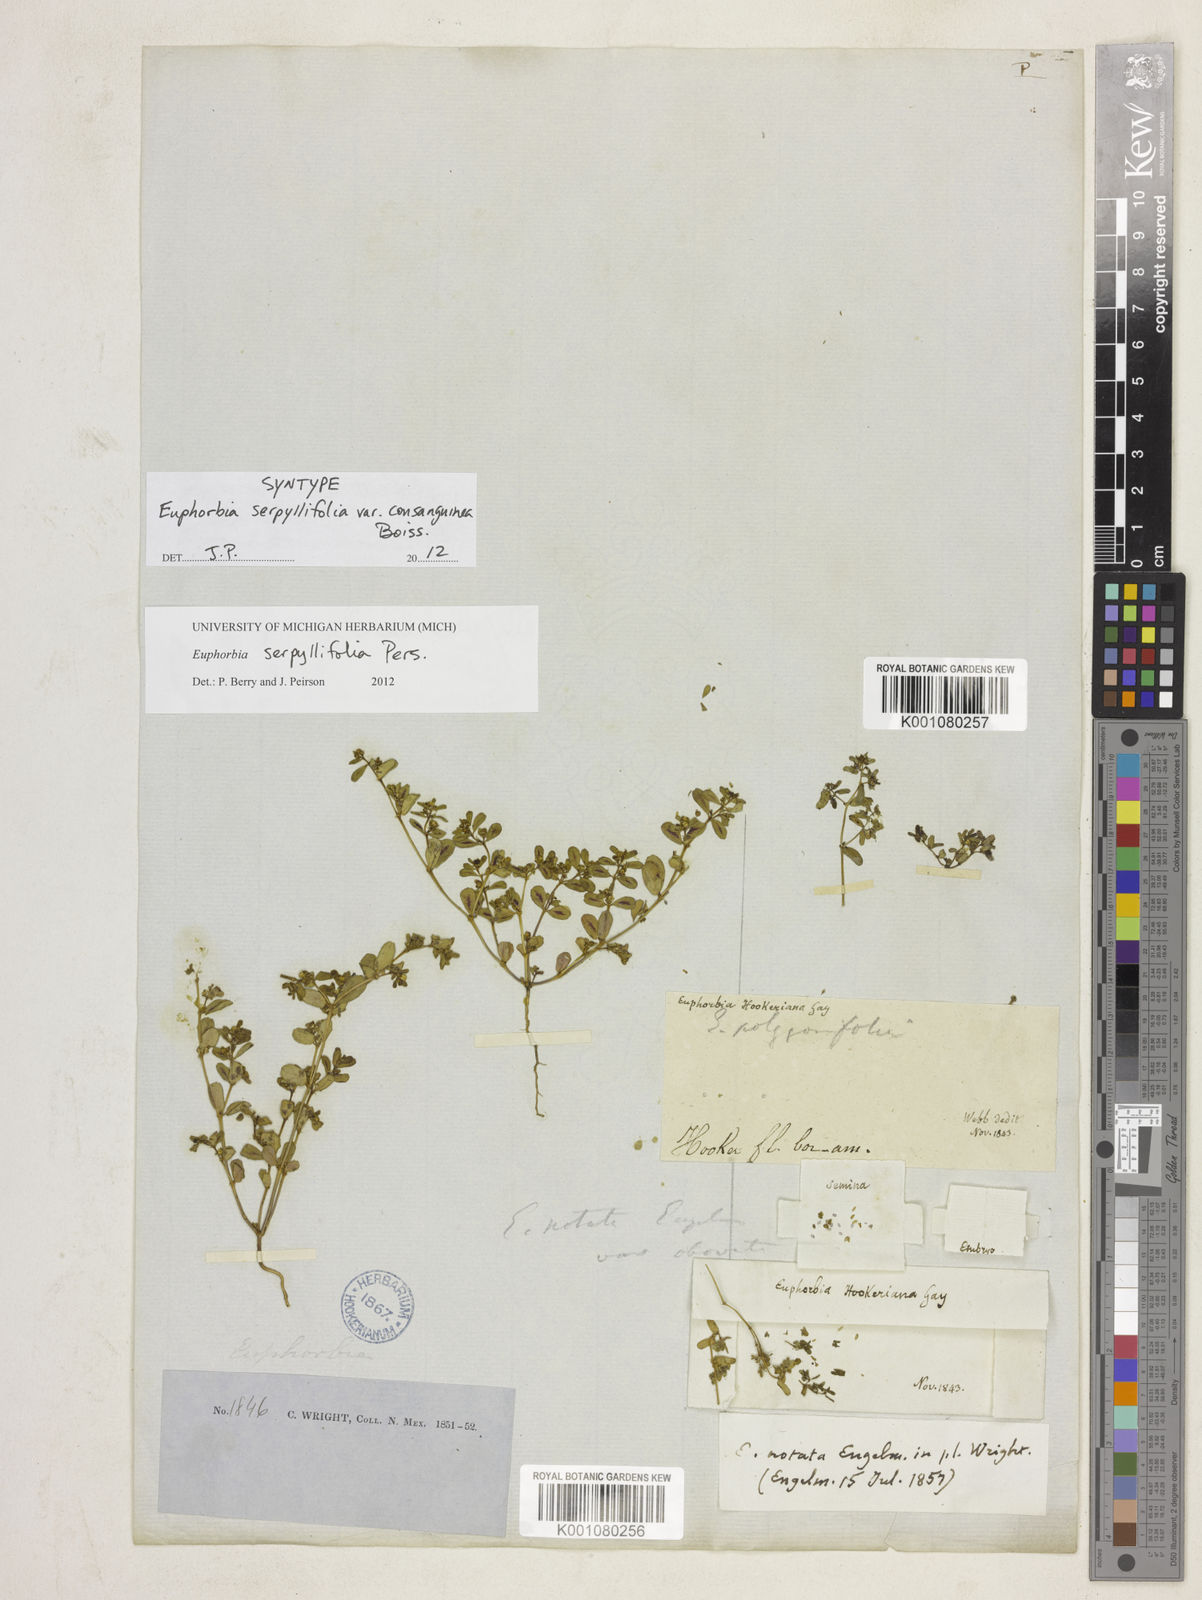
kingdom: Plantae
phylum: Tracheophyta
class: Magnoliopsida
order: Malpighiales
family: Euphorbiaceae
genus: Euphorbia
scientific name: Euphorbia serpillifolia
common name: Thyme-leaf spurge
